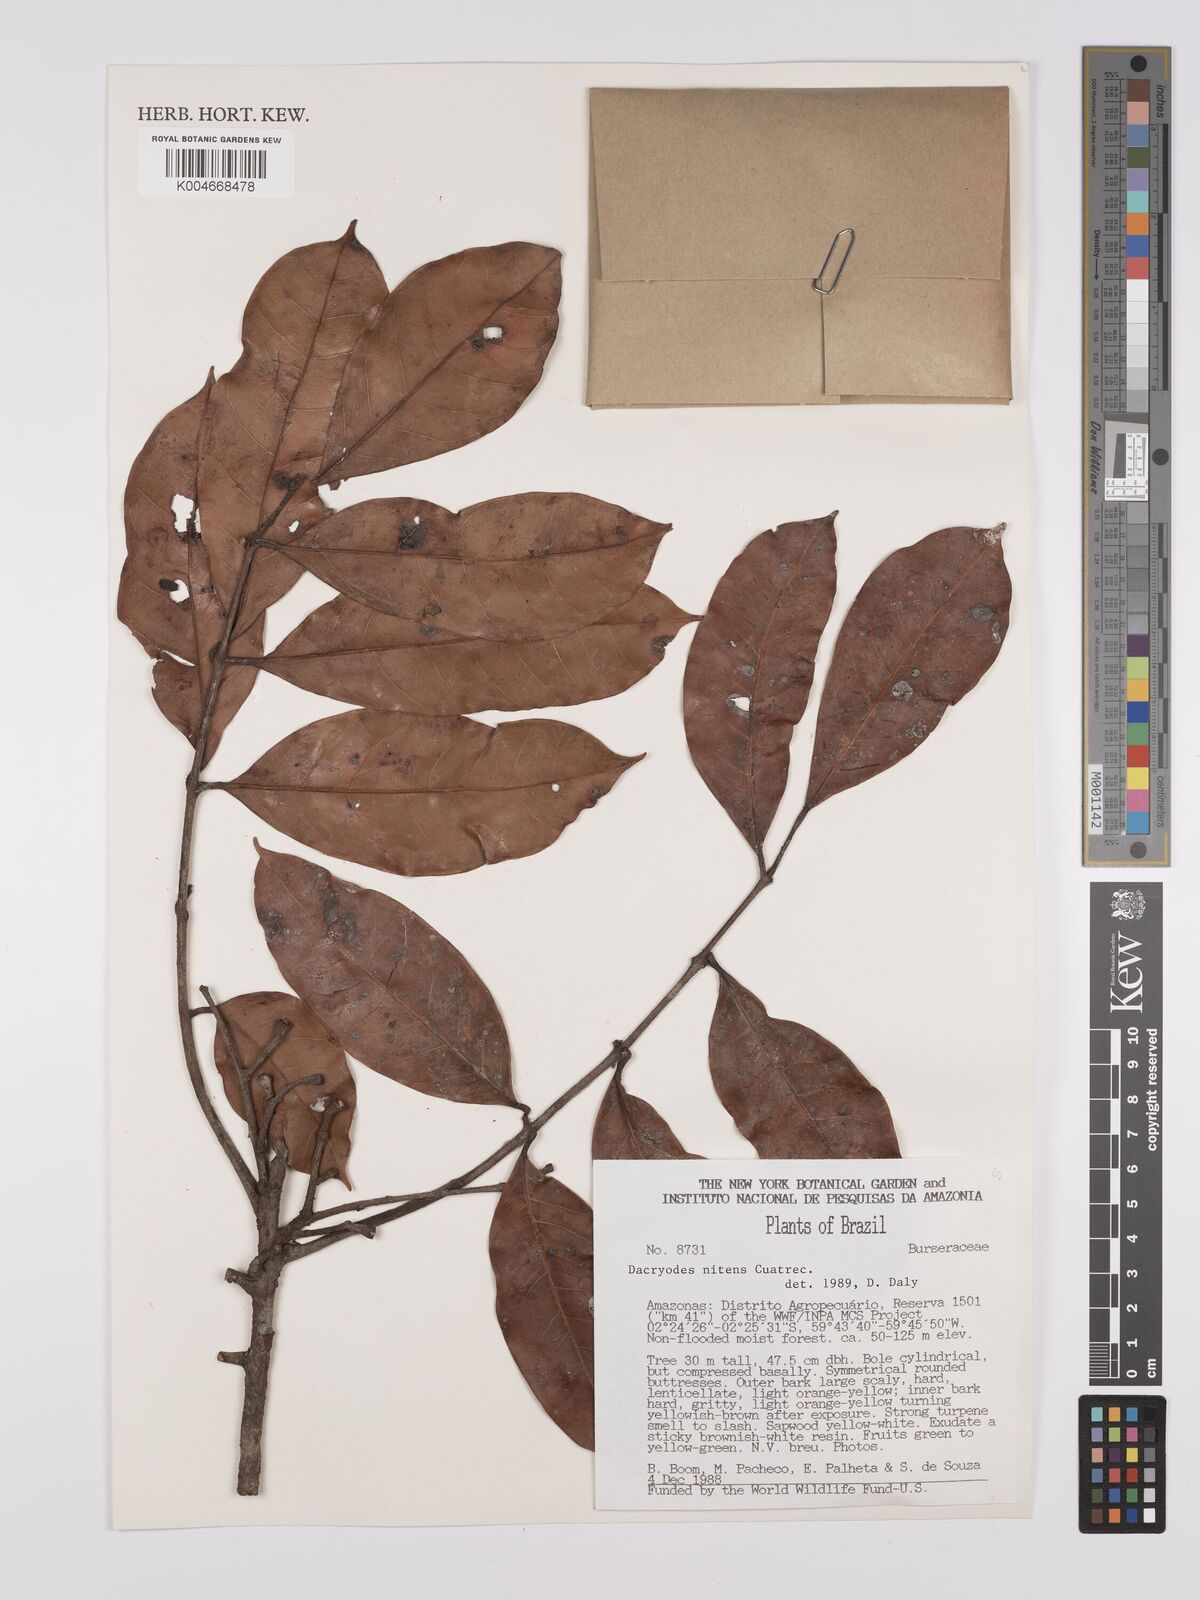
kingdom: Plantae
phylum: Tracheophyta
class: Magnoliopsida
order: Sapindales
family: Burseraceae
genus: Dacryodes
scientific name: Dacryodes nitens
